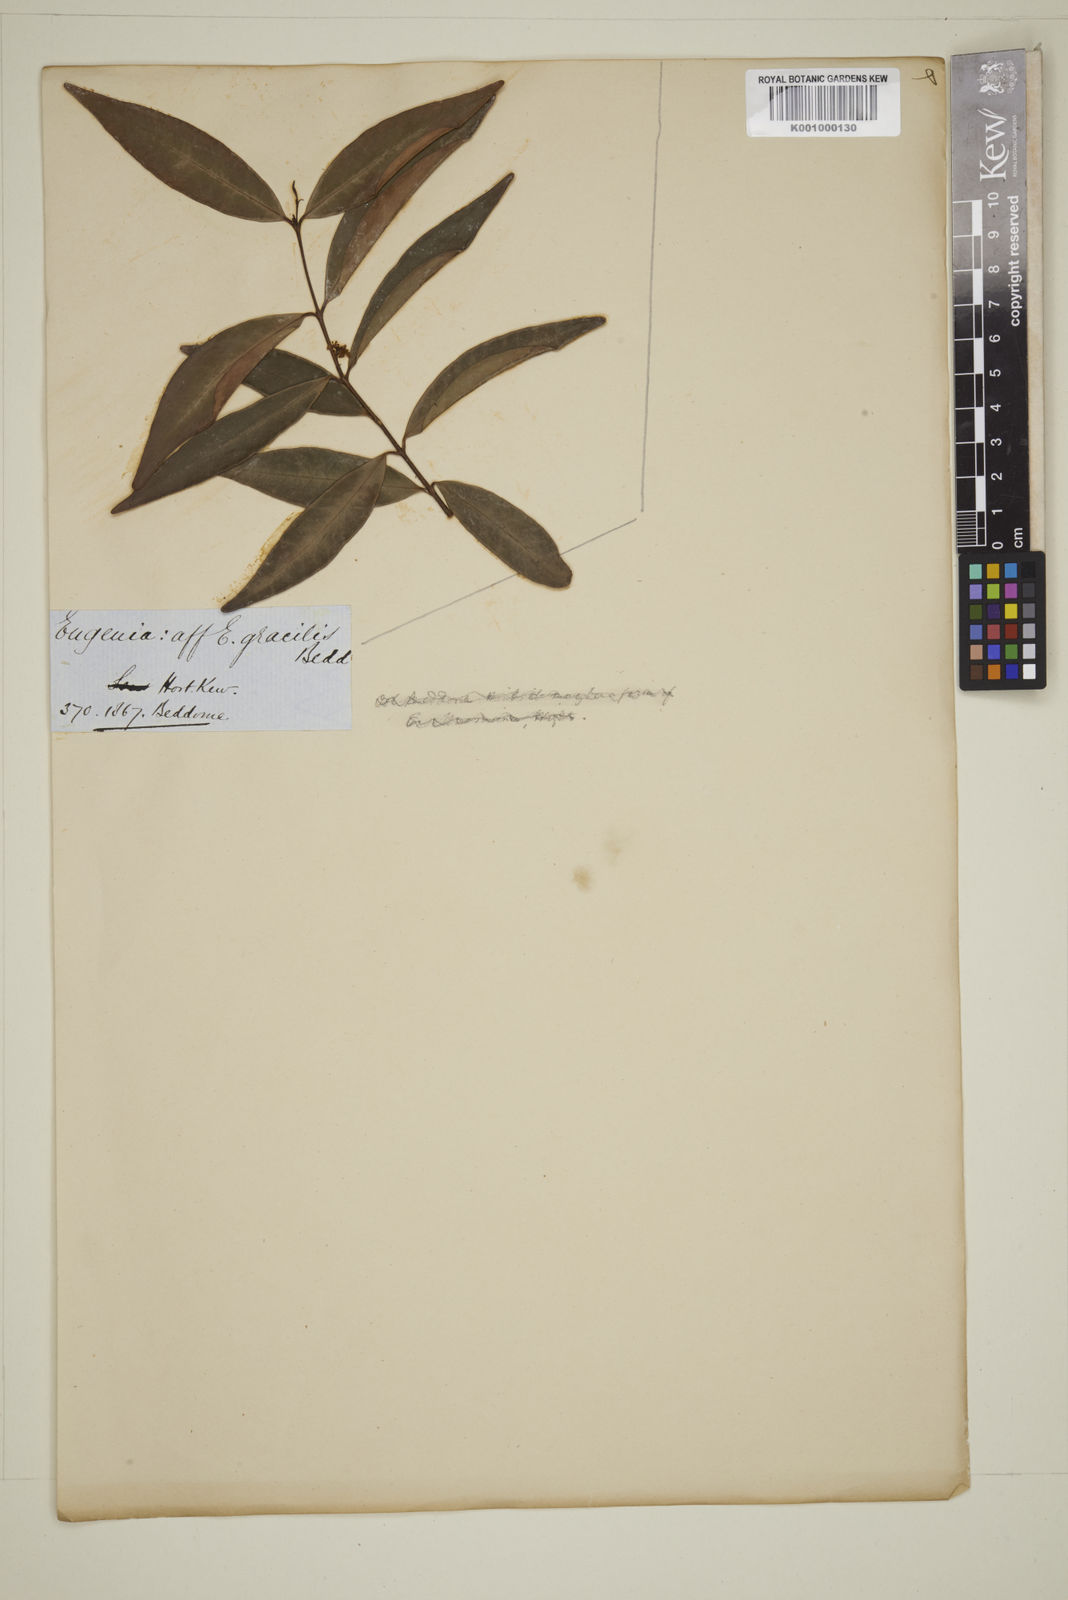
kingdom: Plantae
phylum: Tracheophyta
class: Magnoliopsida
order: Myrtales
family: Myrtaceae
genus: Eugenia
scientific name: Eugenia
